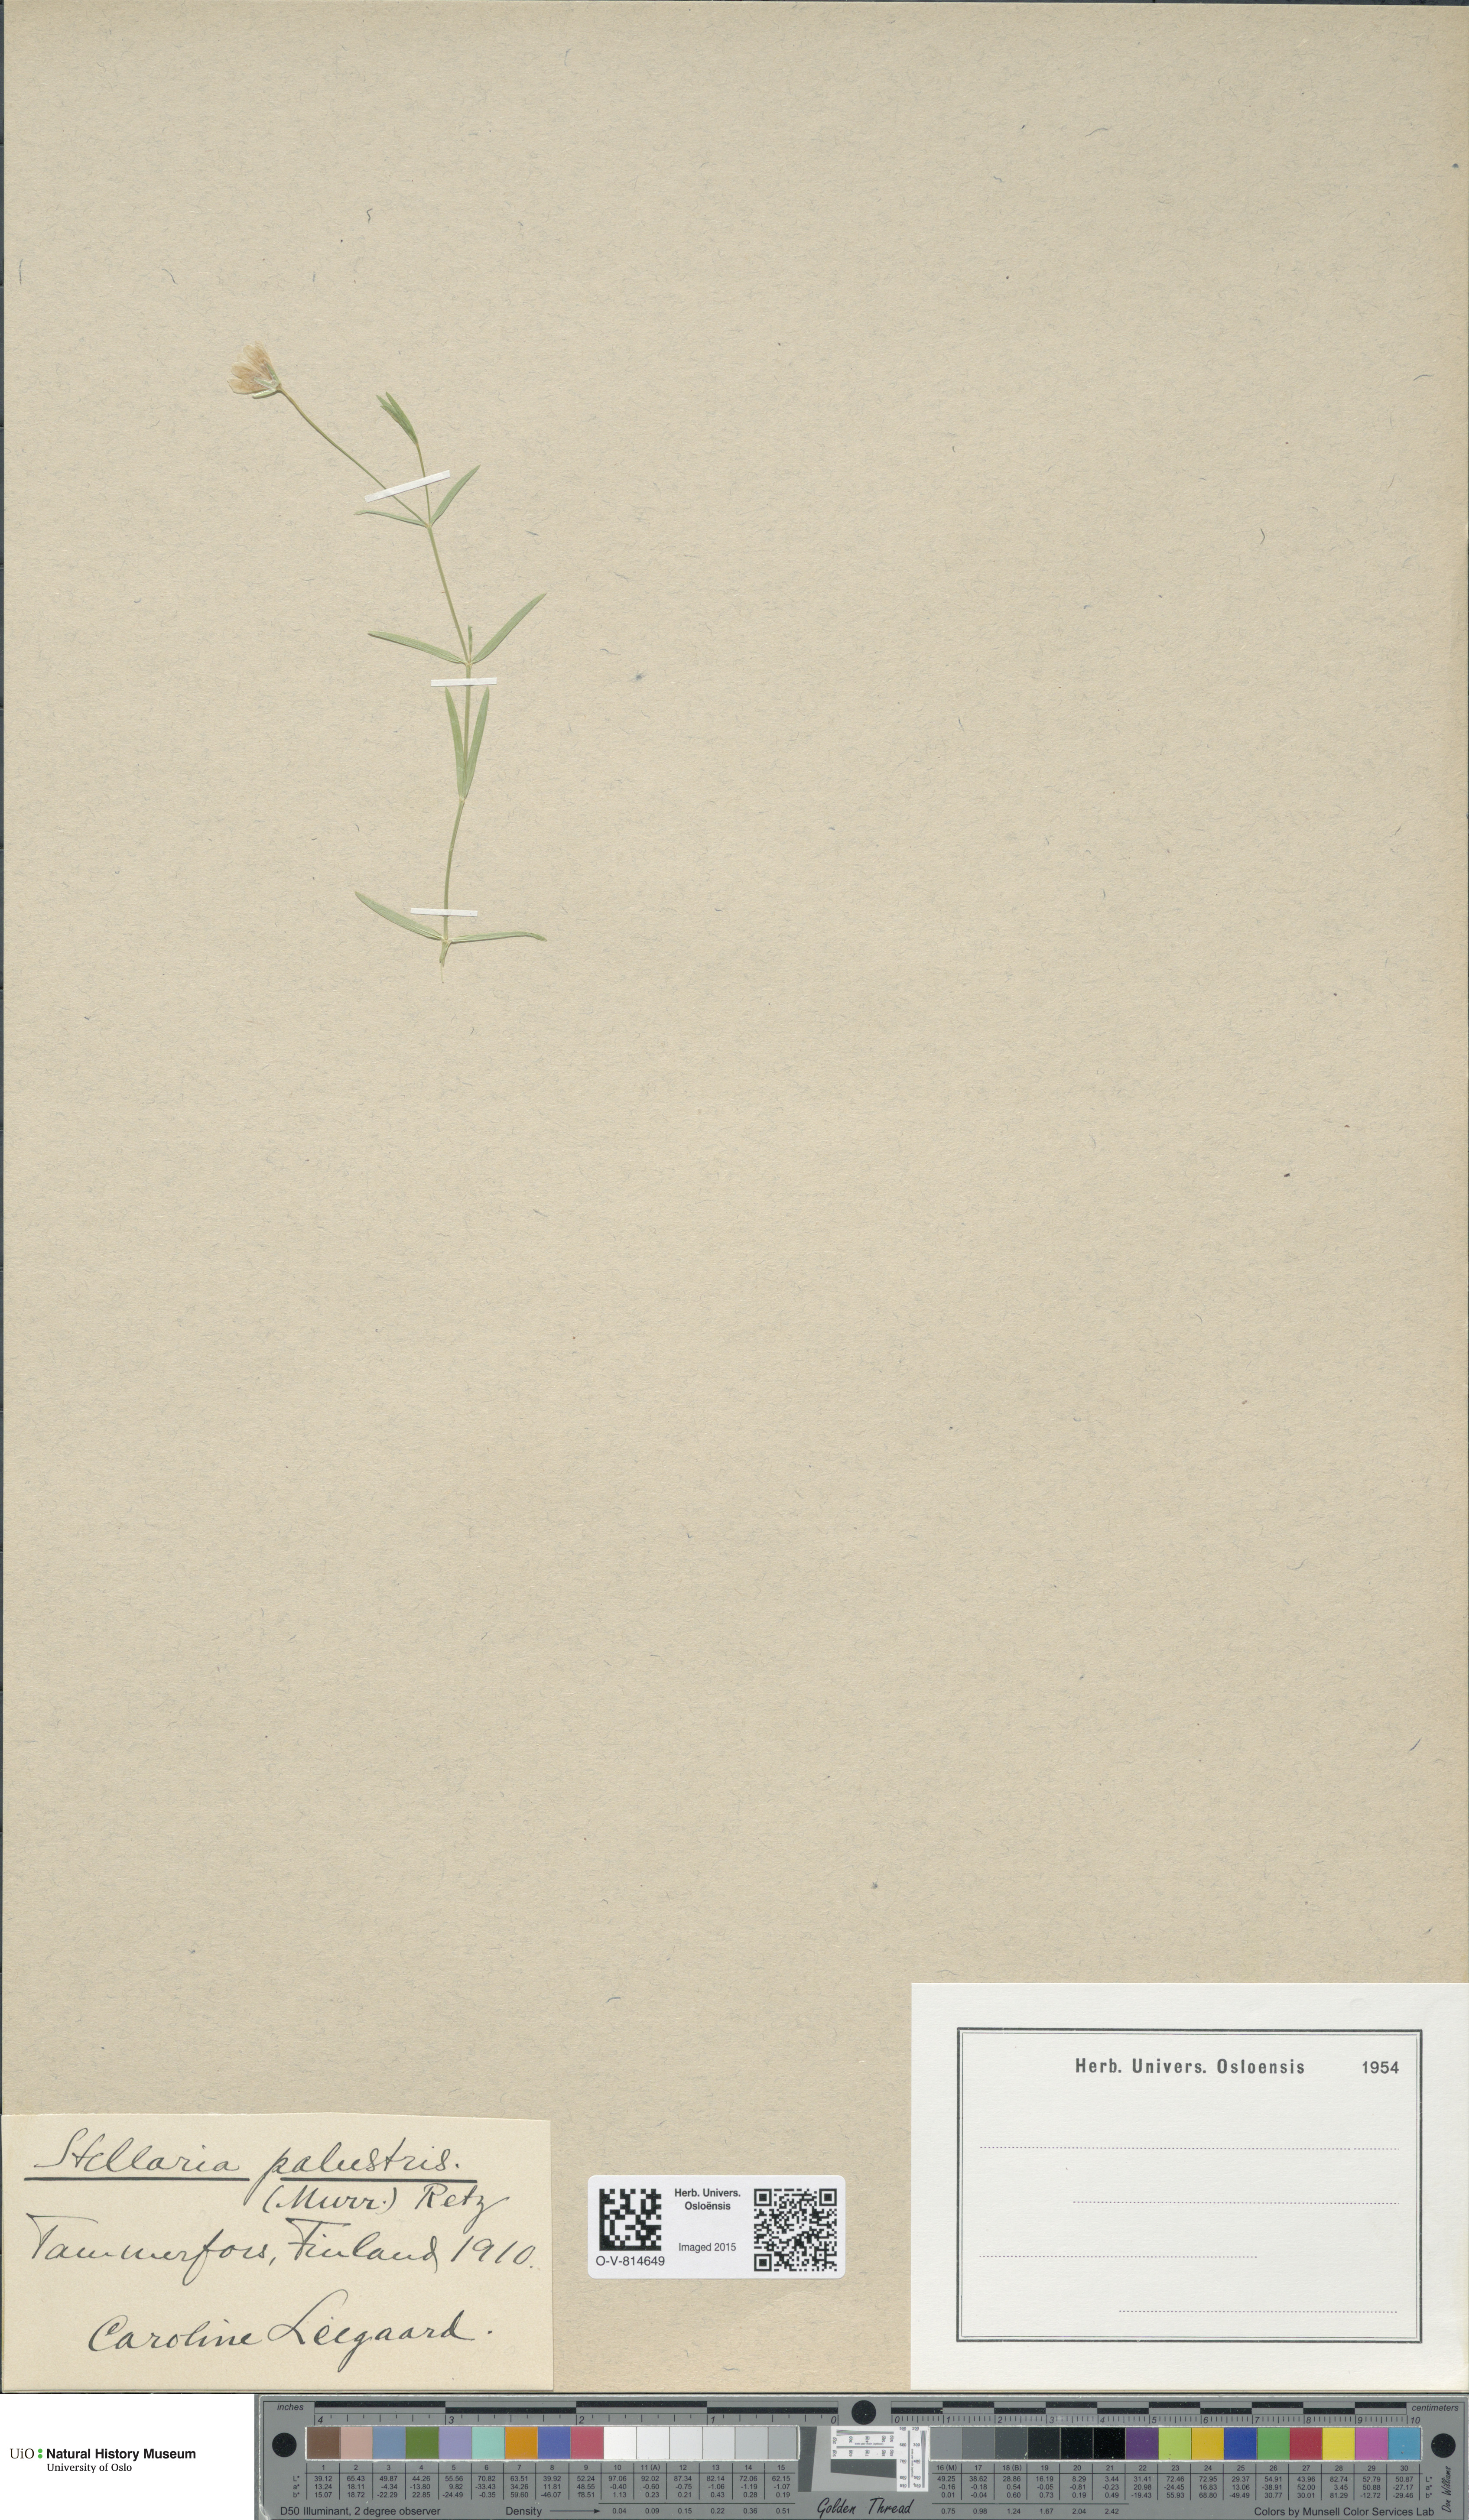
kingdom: Plantae
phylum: Tracheophyta
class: Magnoliopsida
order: Caryophyllales
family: Caryophyllaceae
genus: Stellaria
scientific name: Stellaria palustris
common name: Marsh stitchwort
